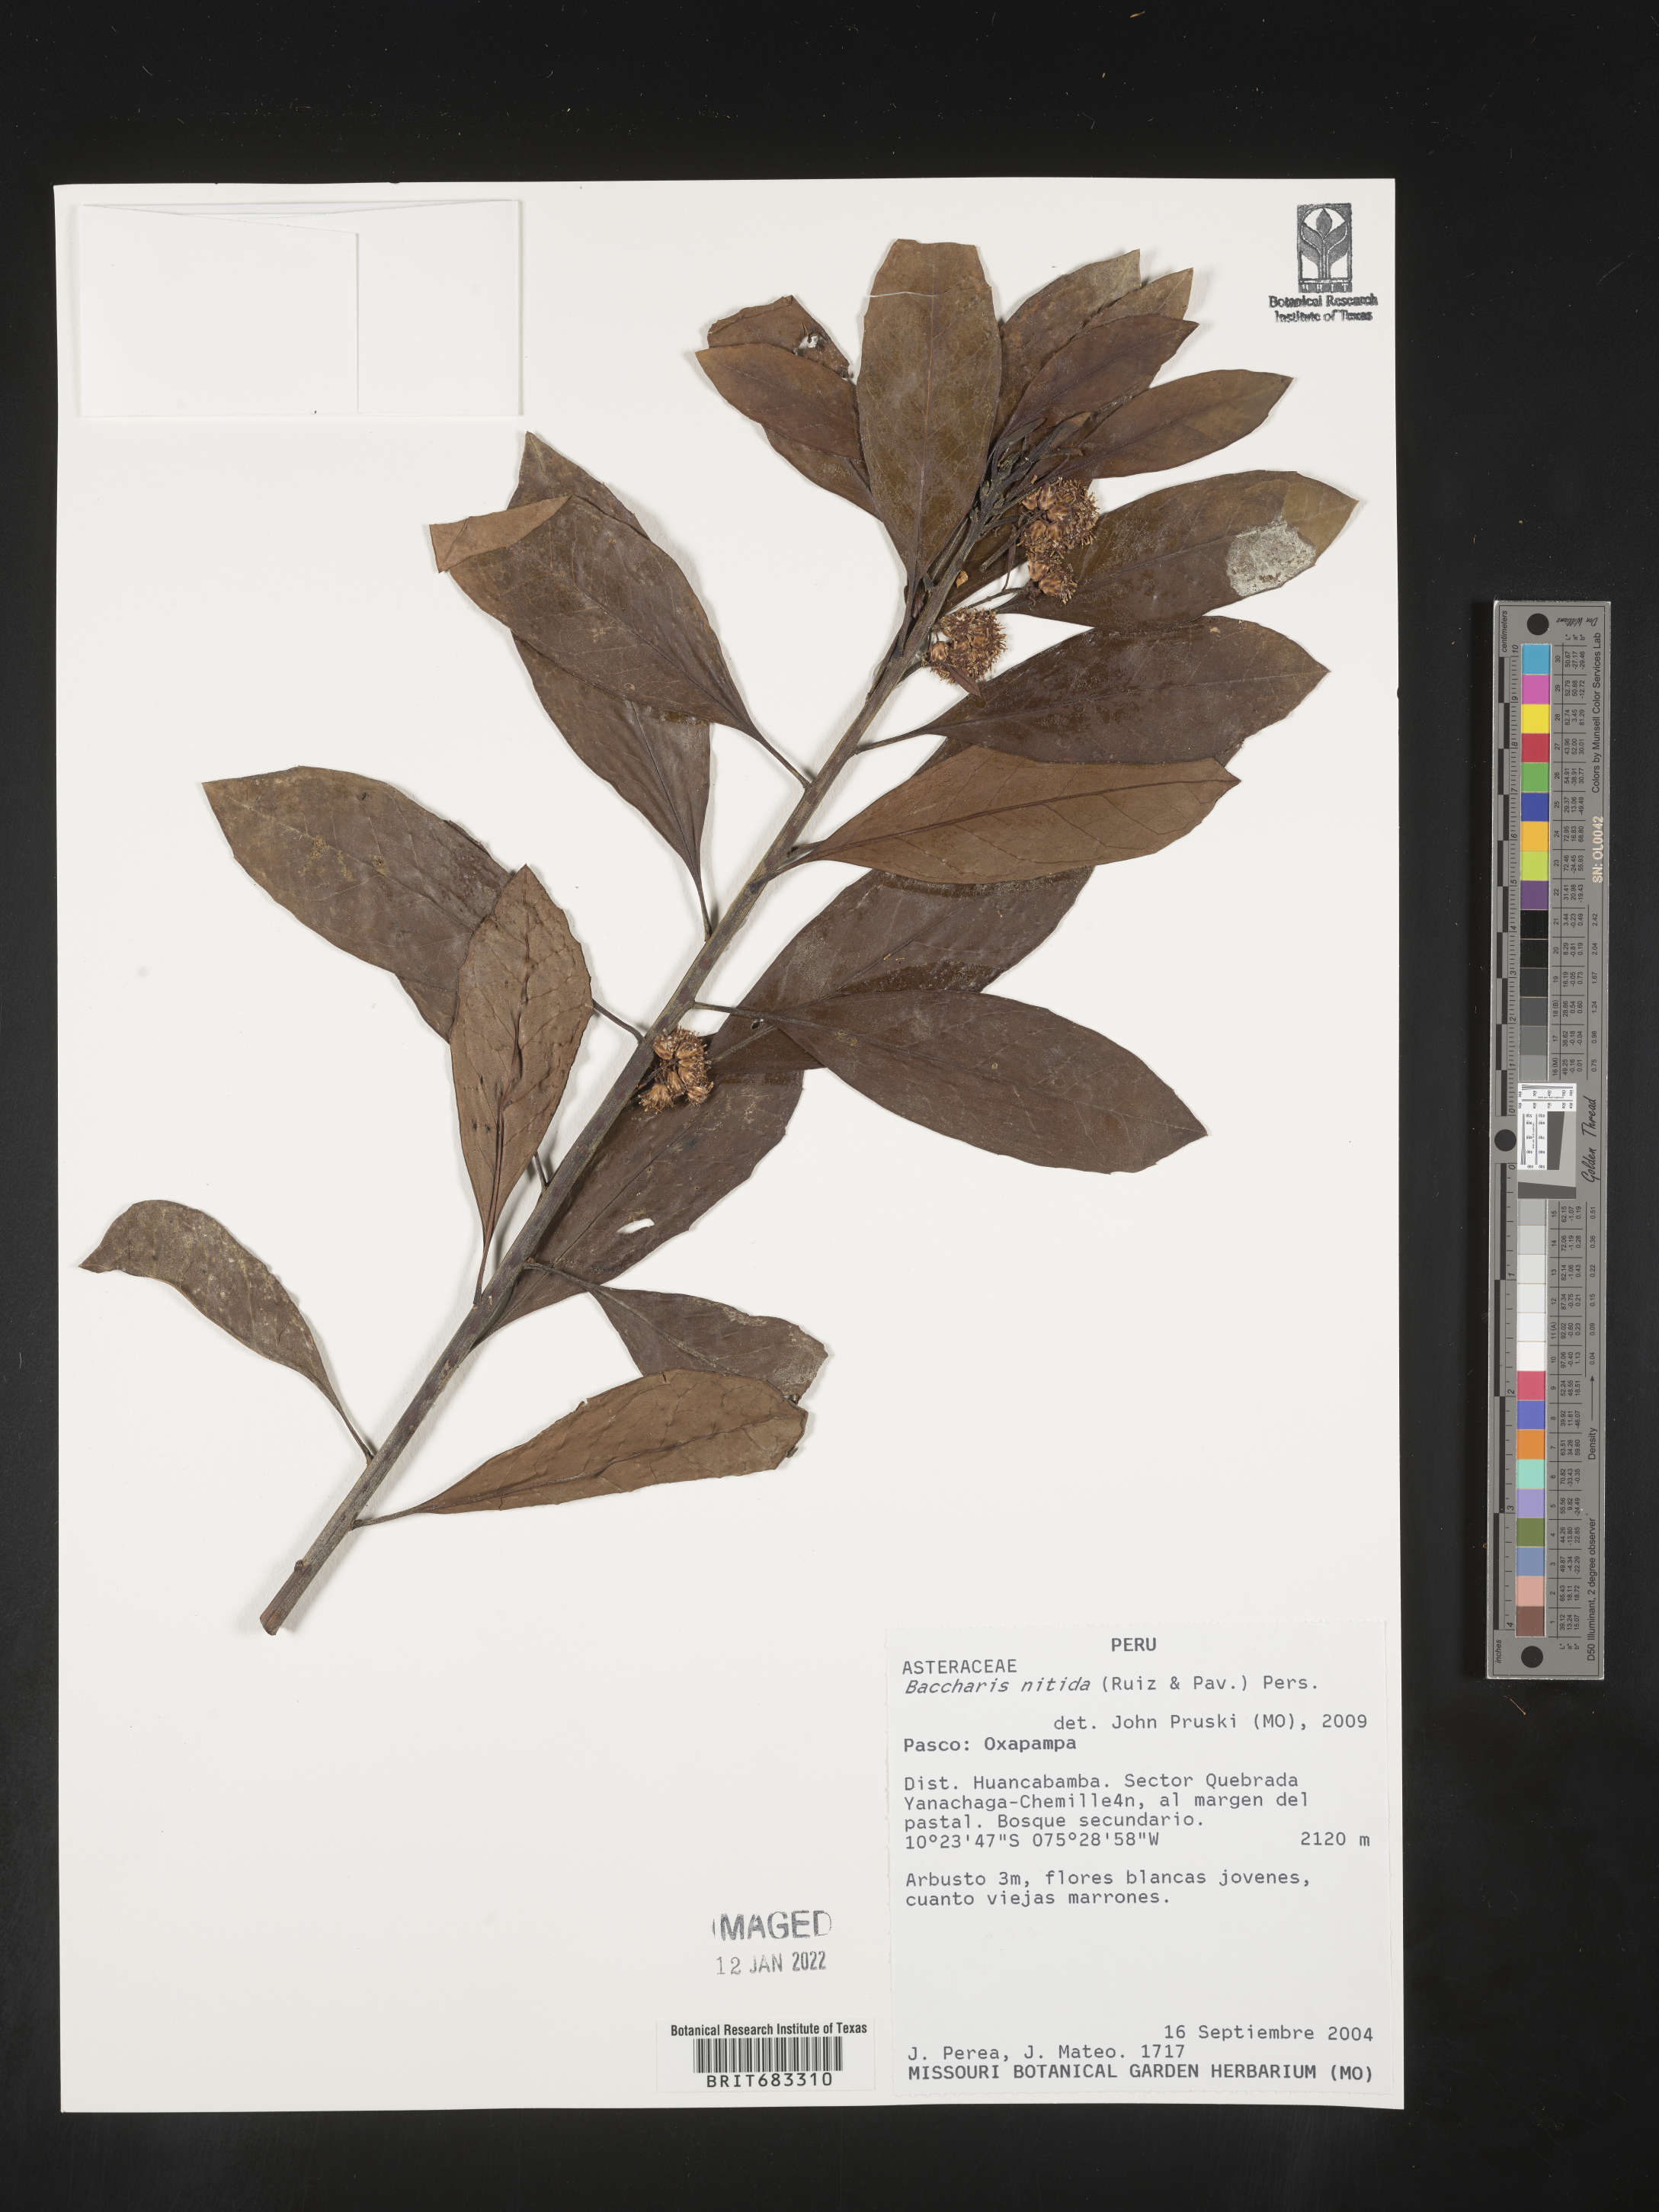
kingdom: Plantae
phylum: Tracheophyta
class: Magnoliopsida
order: Asterales
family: Asteraceae
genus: Baccharis
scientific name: Baccharis
